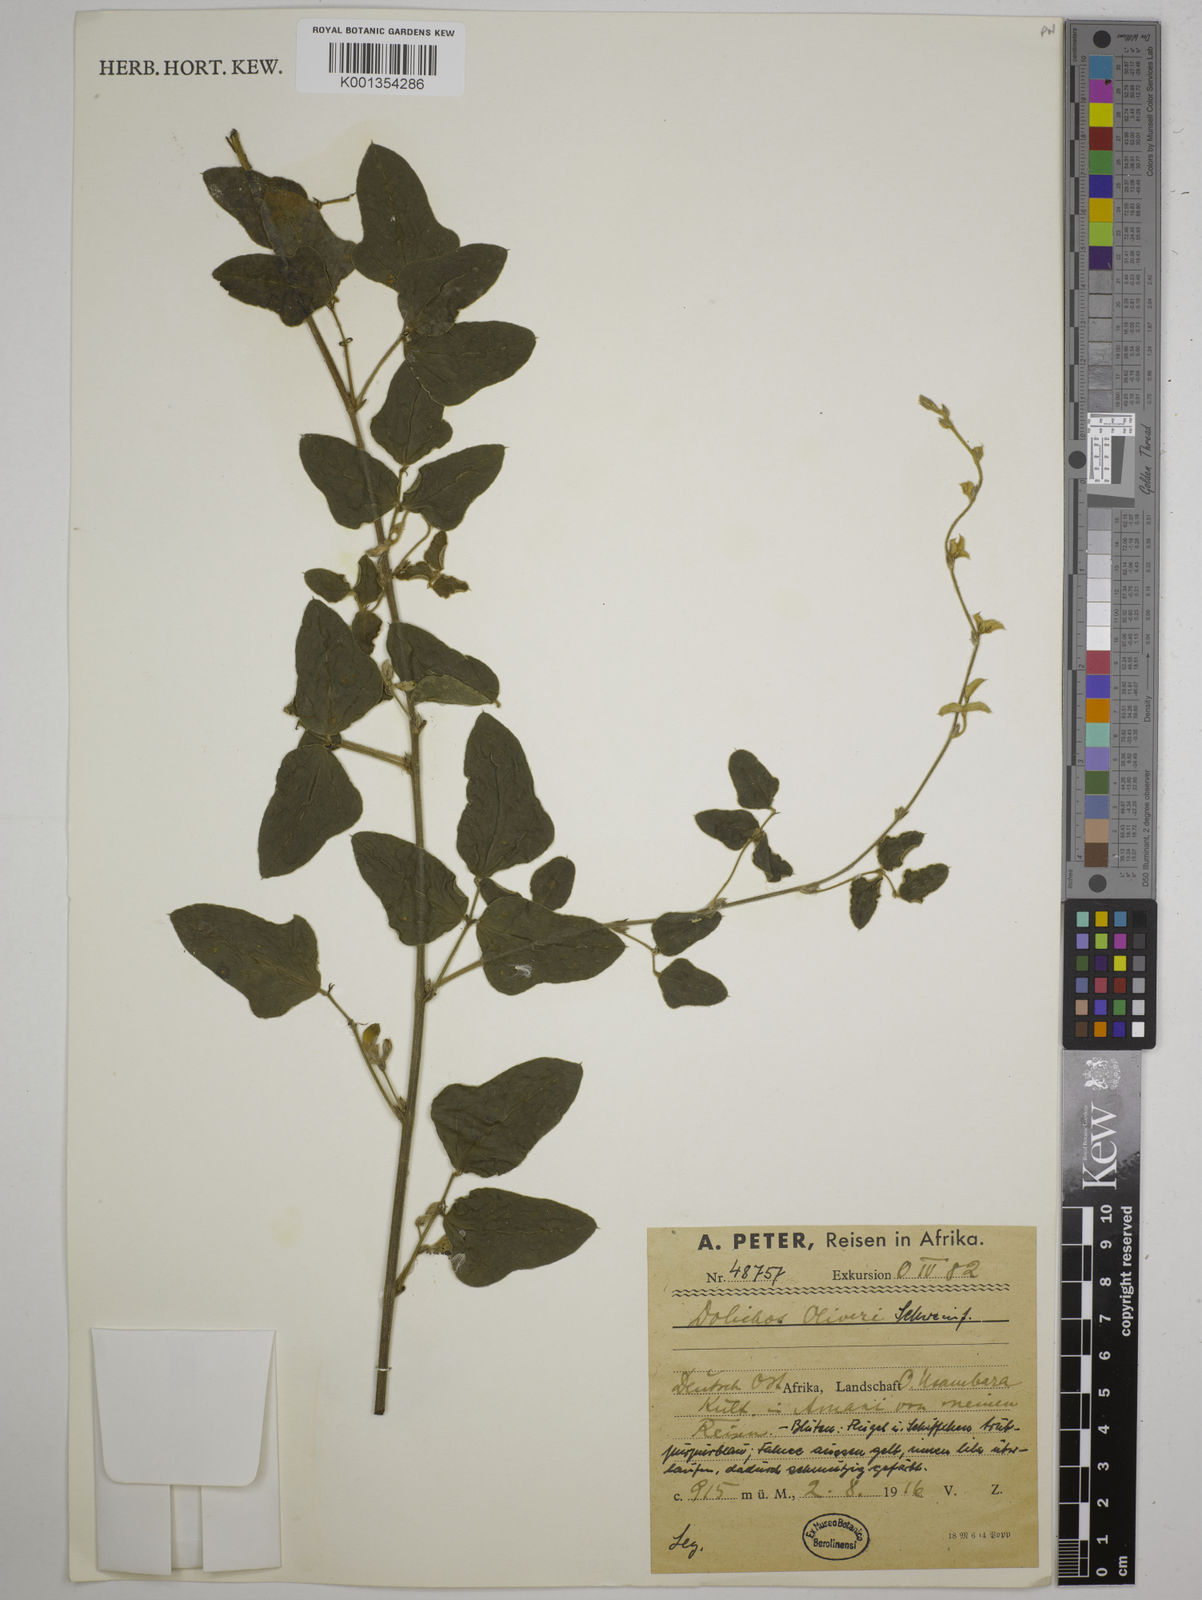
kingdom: Plantae
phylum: Tracheophyta
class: Magnoliopsida
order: Fabales
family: Fabaceae
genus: Dolichos
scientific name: Dolichos oliveri
